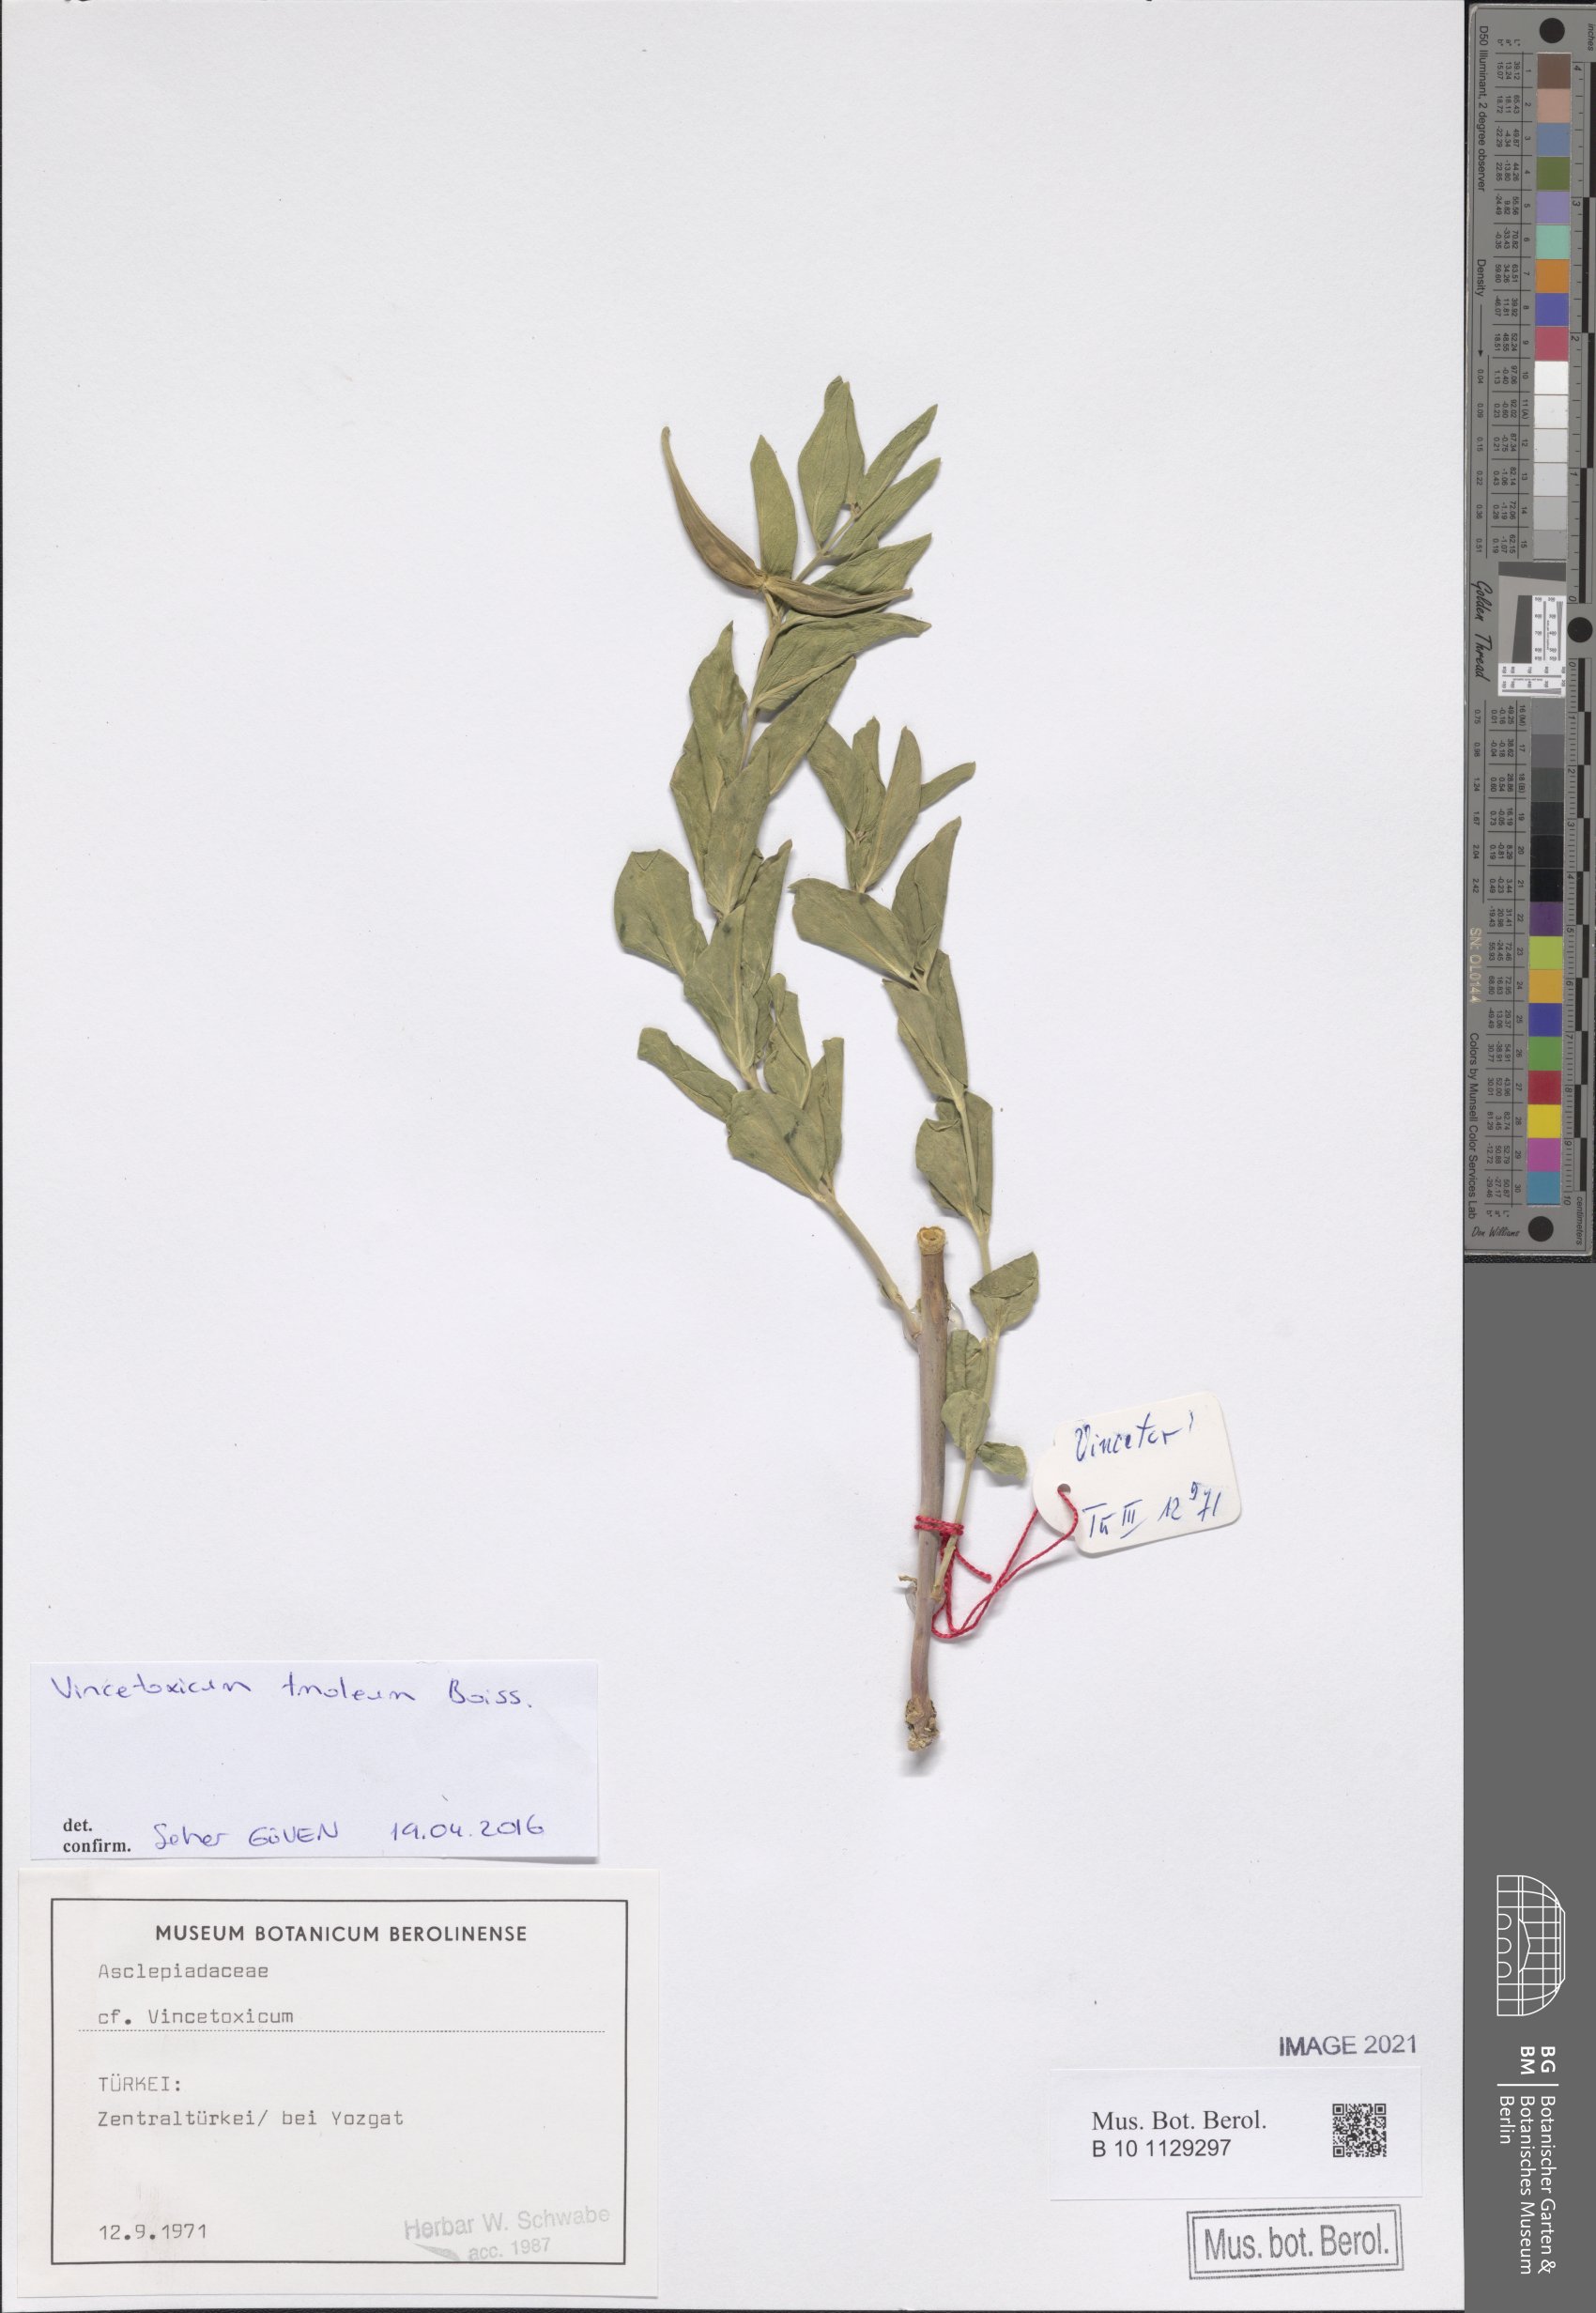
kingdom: Plantae
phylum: Tracheophyta
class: Magnoliopsida
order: Gentianales
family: Apocynaceae
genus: Vincetoxicum
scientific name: Vincetoxicum tmoleum
